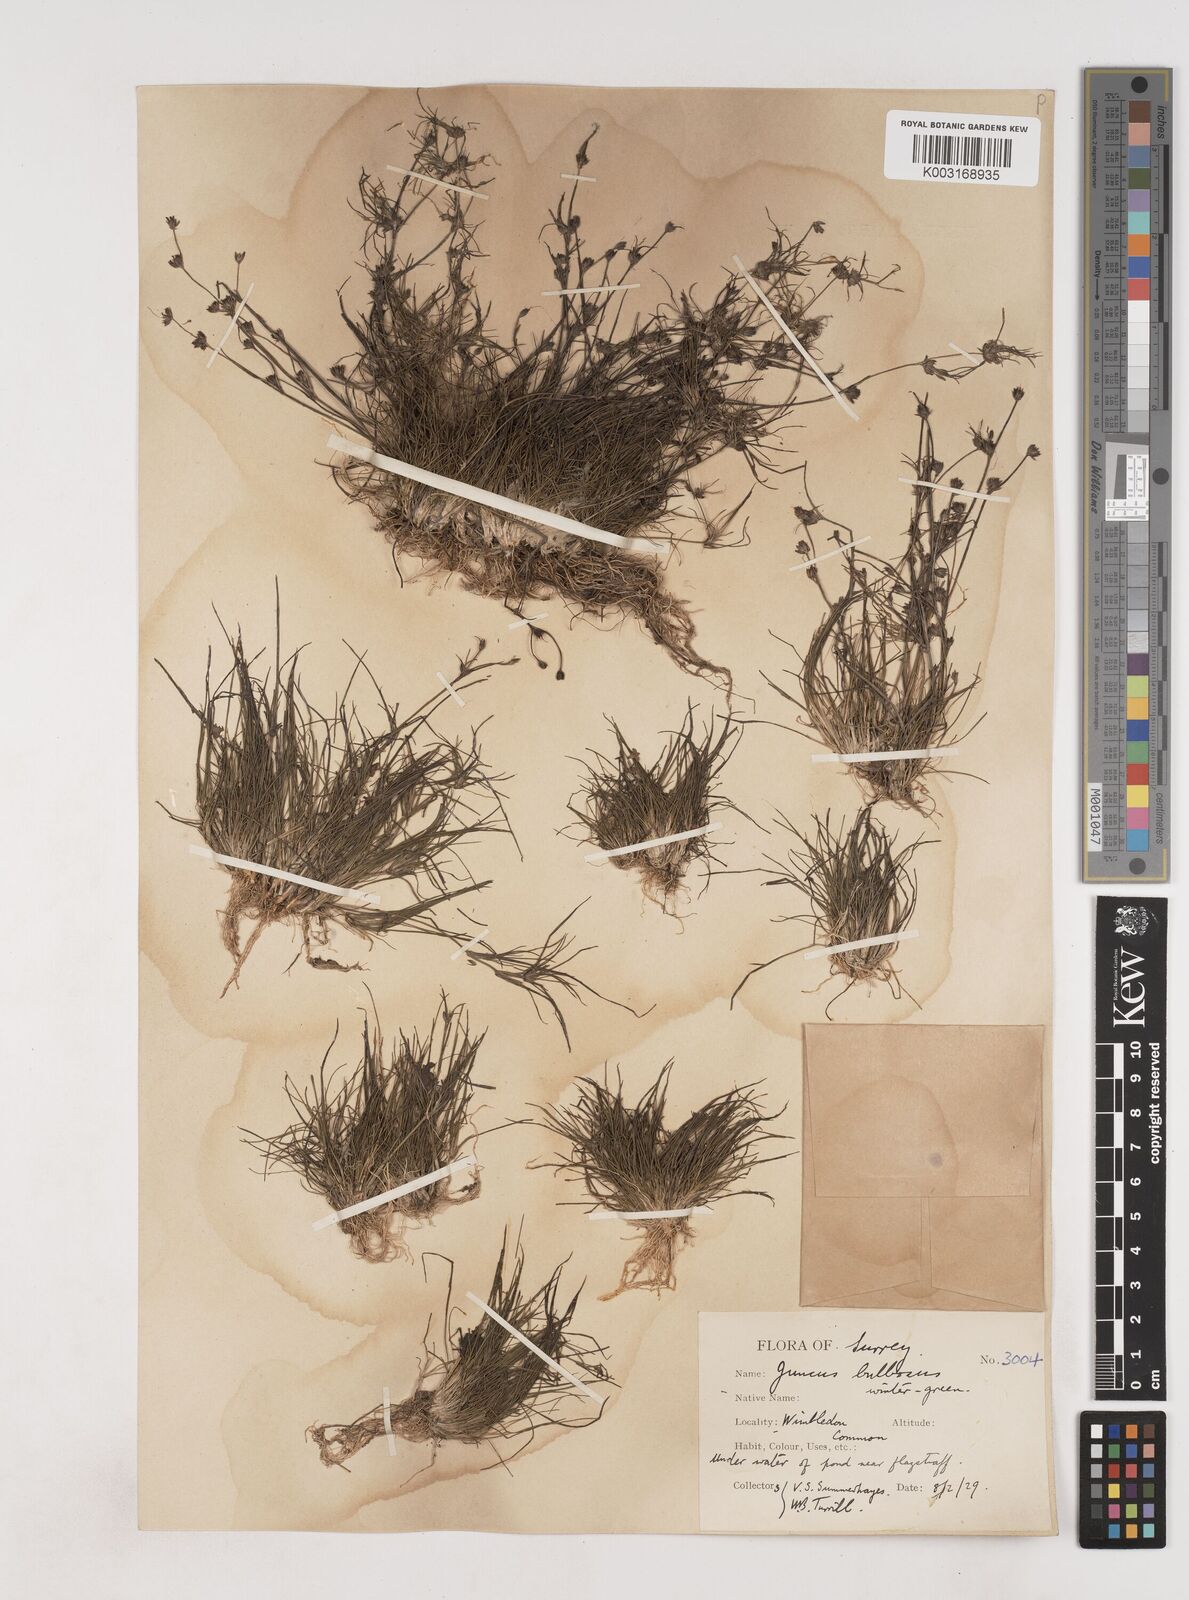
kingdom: Plantae
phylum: Tracheophyta
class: Liliopsida
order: Poales
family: Juncaceae
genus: Juncus
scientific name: Juncus bulbosus
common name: Bulbous rush
